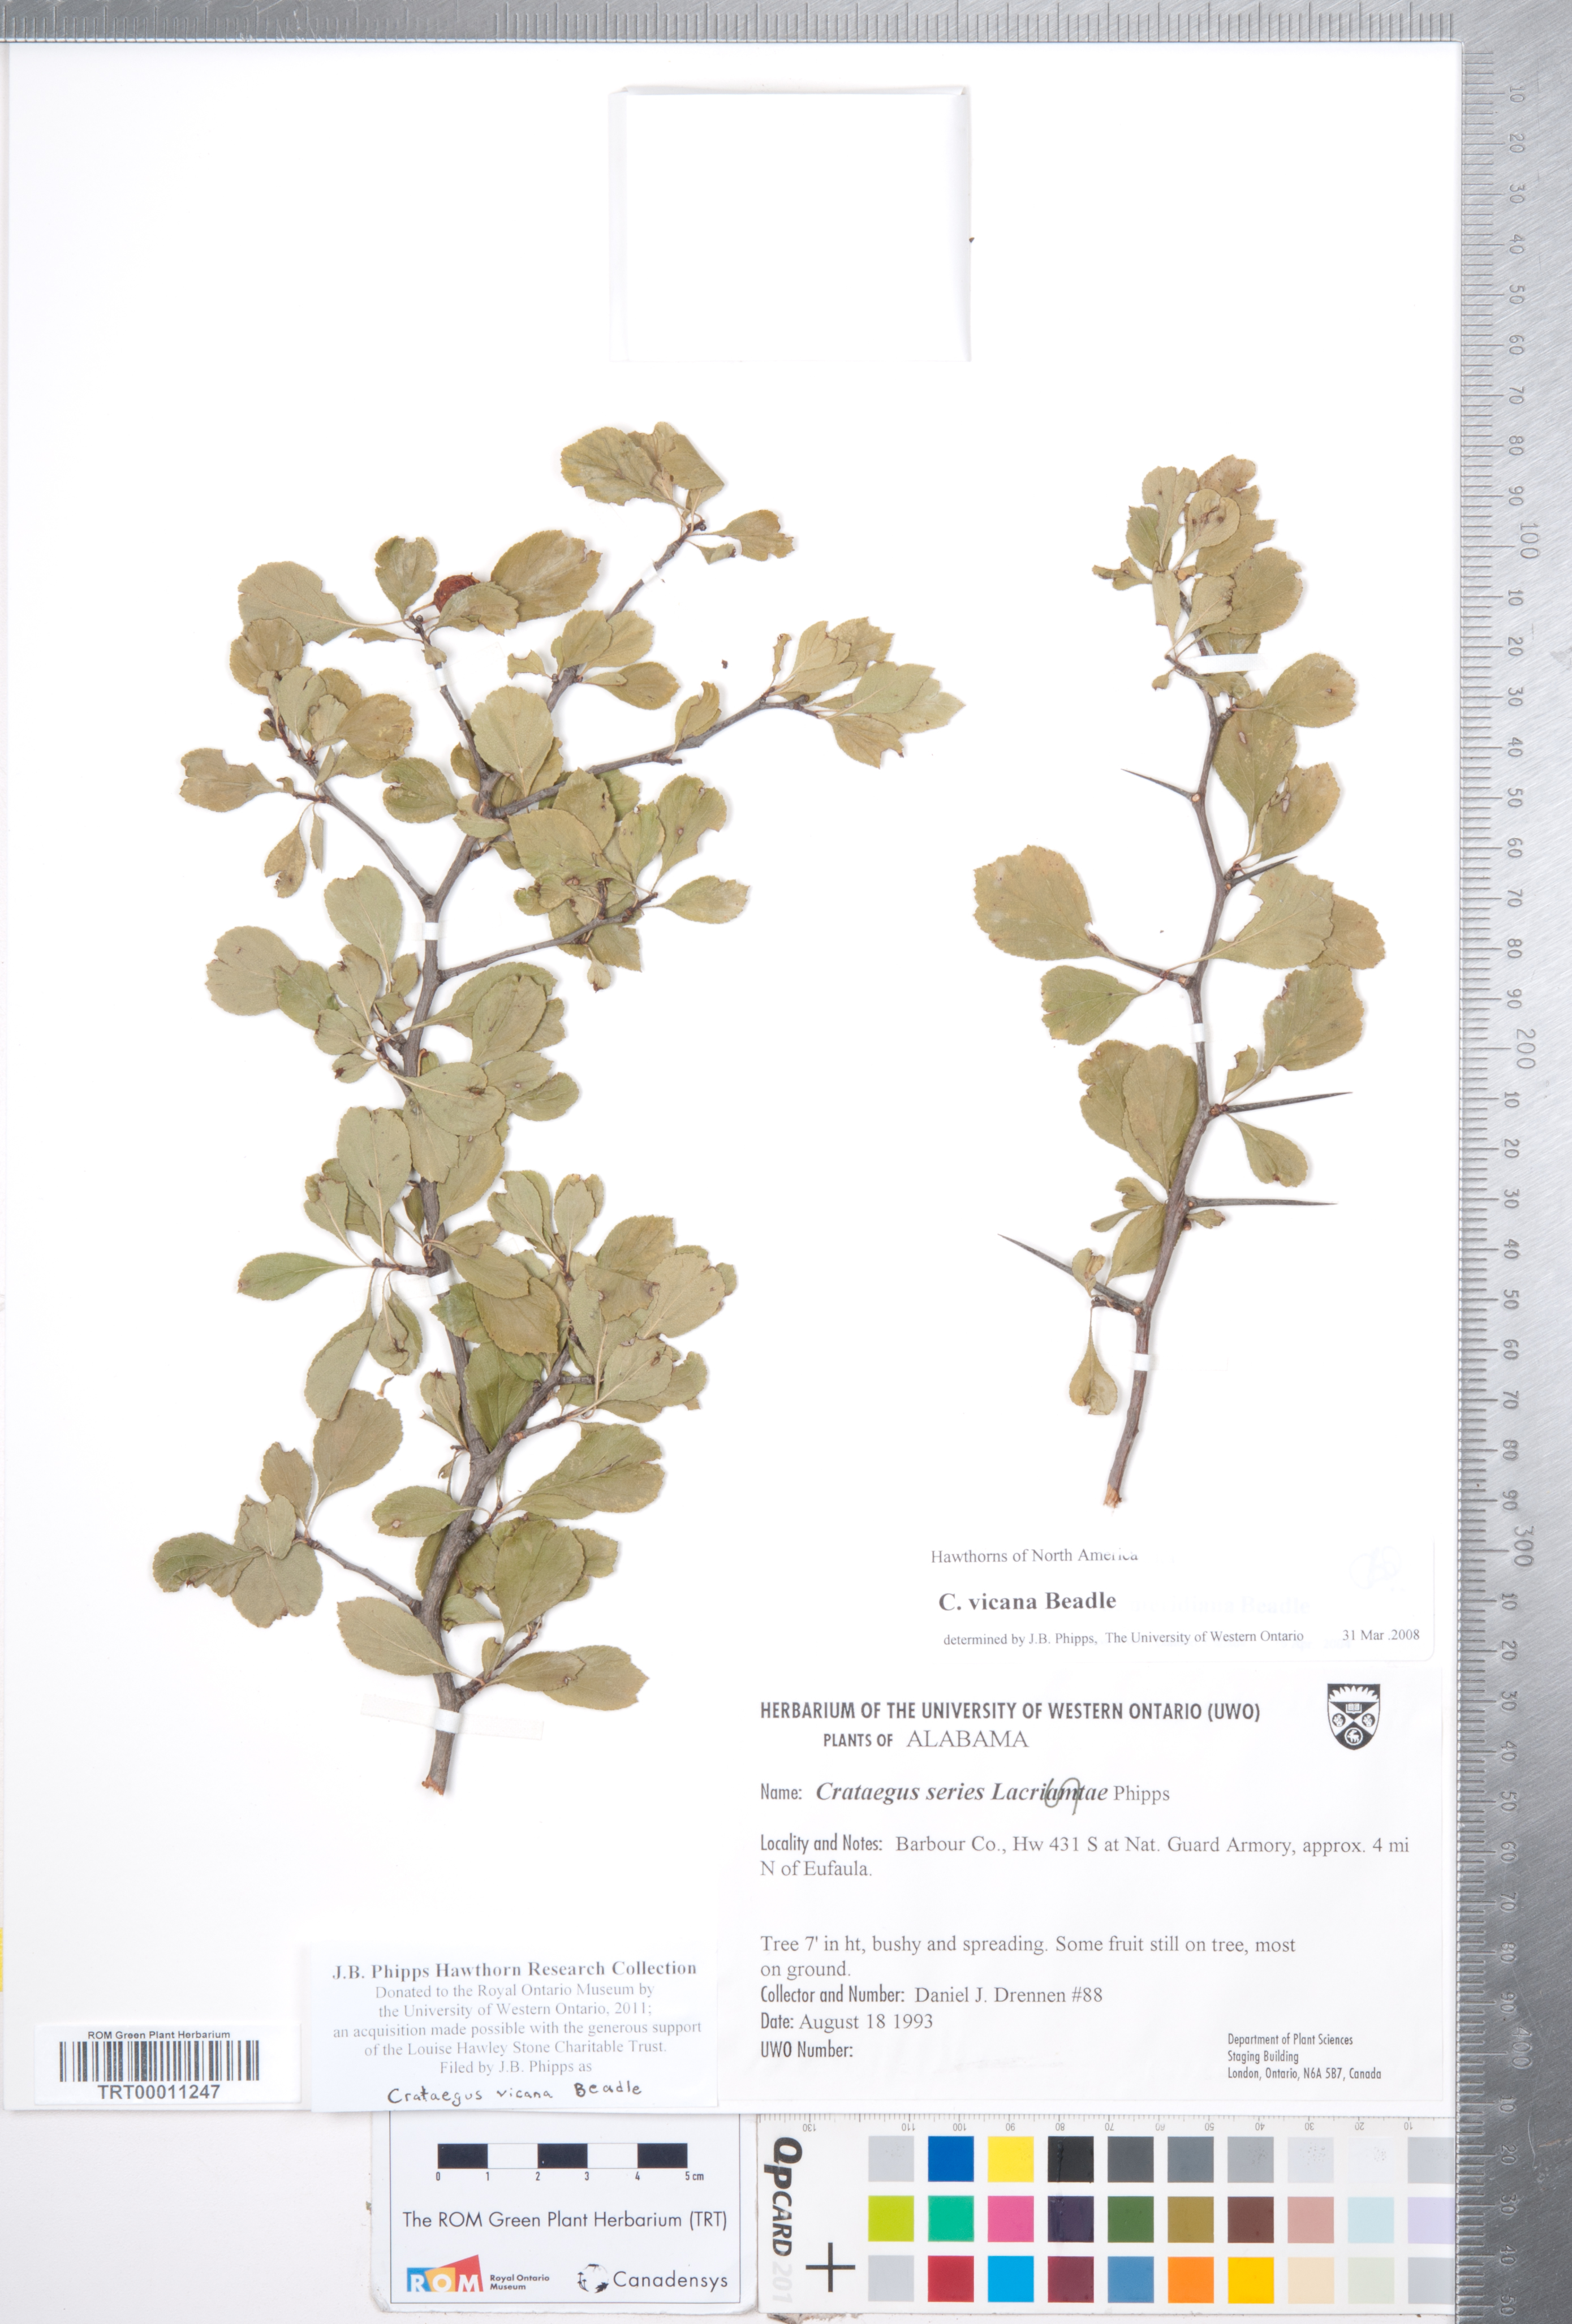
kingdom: Plantae
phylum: Tracheophyta
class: Magnoliopsida
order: Rosales
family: Rosaceae
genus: Crataegus
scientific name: Crataegus lassa
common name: Florida hawthorn
